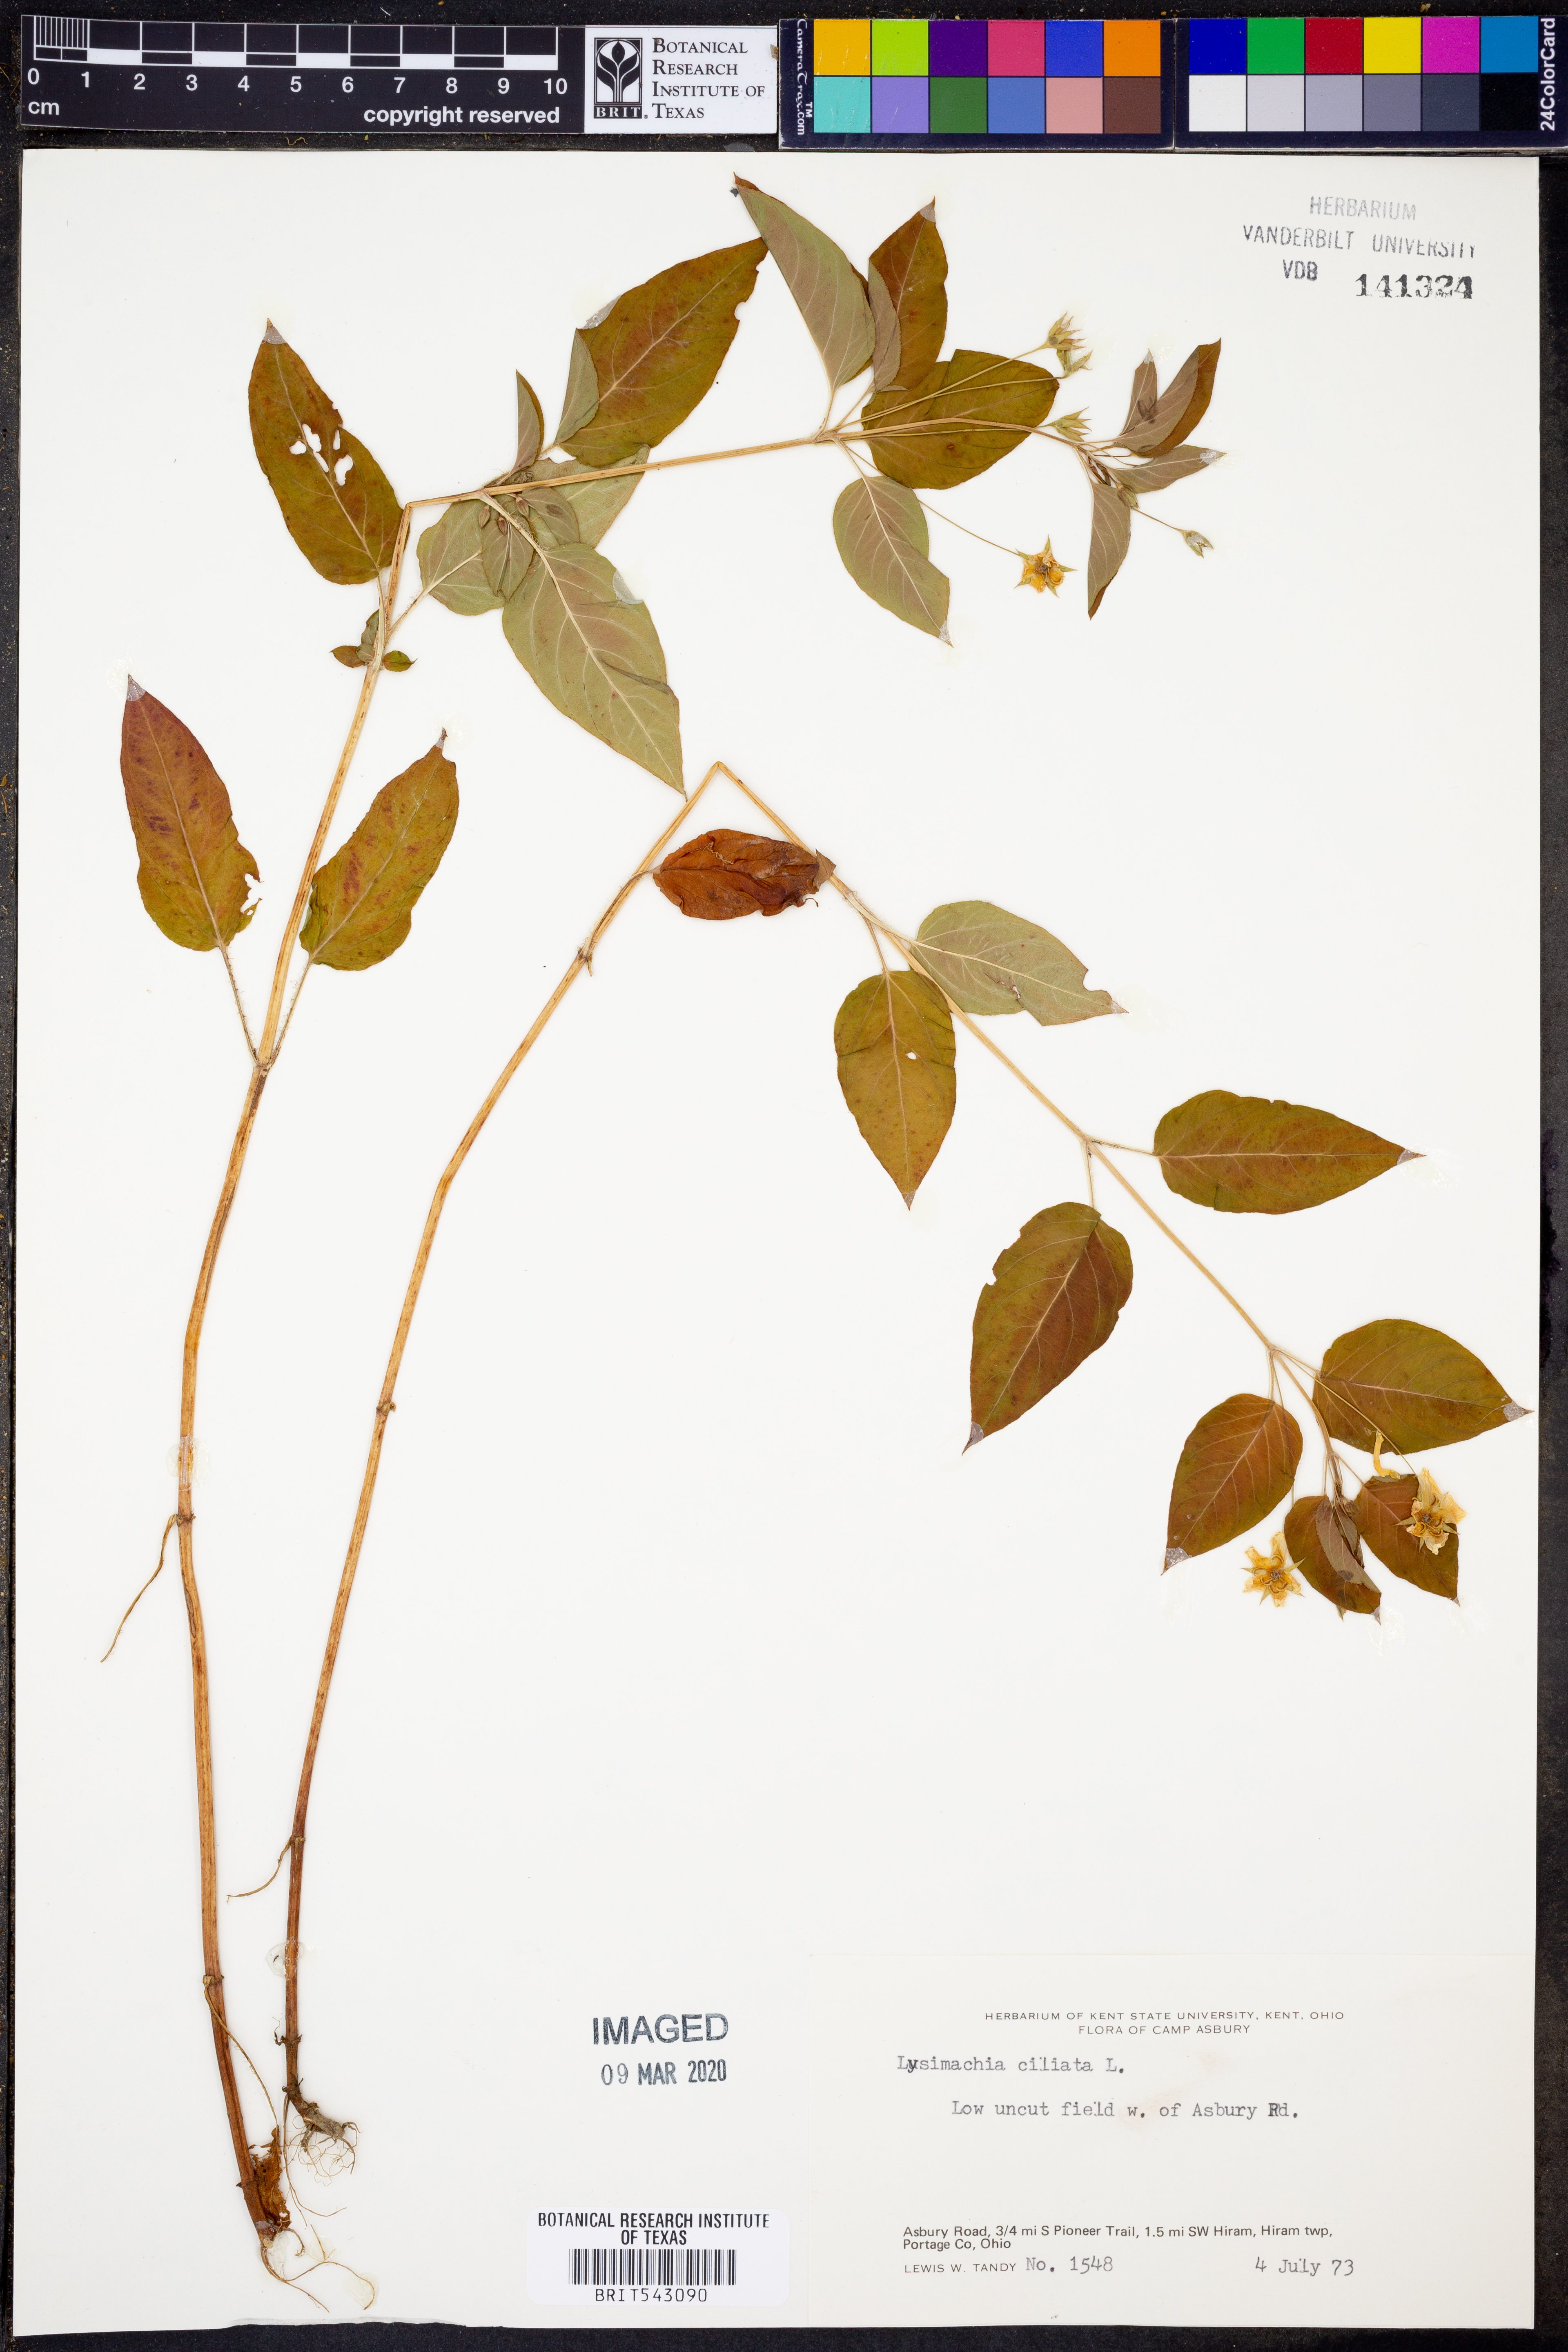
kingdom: Plantae
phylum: Tracheophyta
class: Magnoliopsida
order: Ericales
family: Primulaceae
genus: Lysimachia
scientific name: Lysimachia ciliata
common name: Fringed loosestrife
